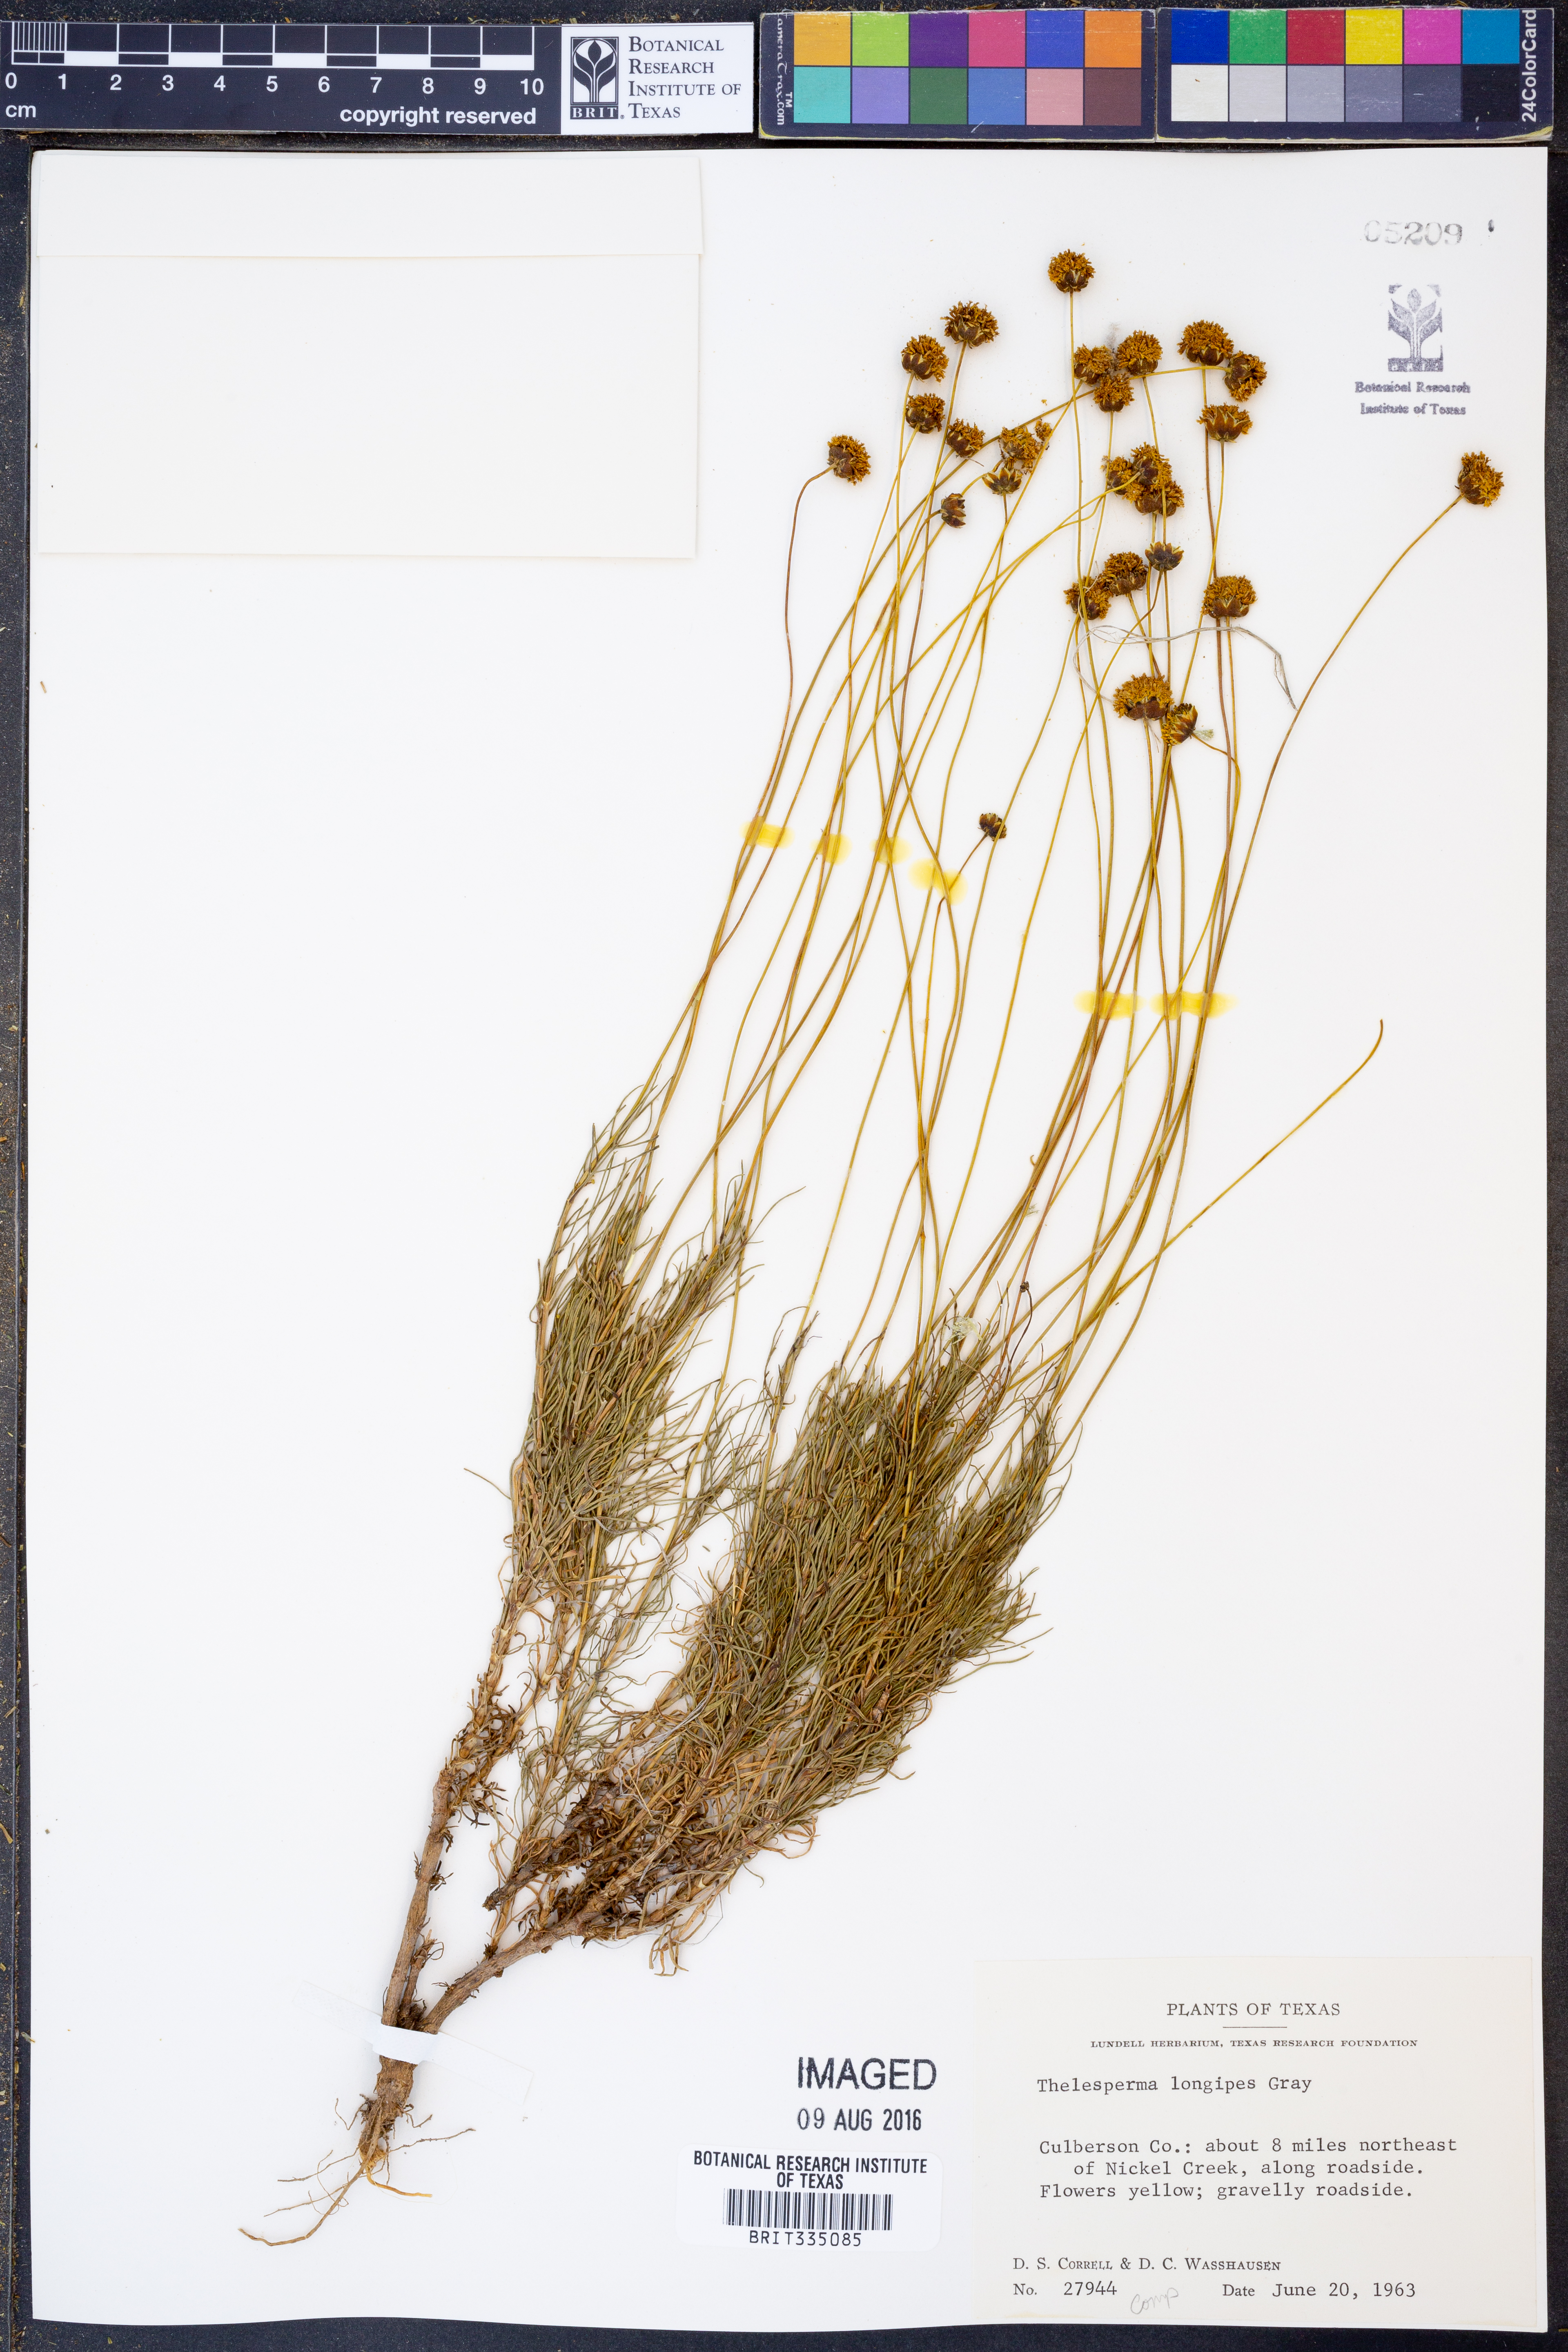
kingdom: Plantae
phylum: Tracheophyta
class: Magnoliopsida
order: Asterales
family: Asteraceae
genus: Thelesperma
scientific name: Thelesperma longipes
